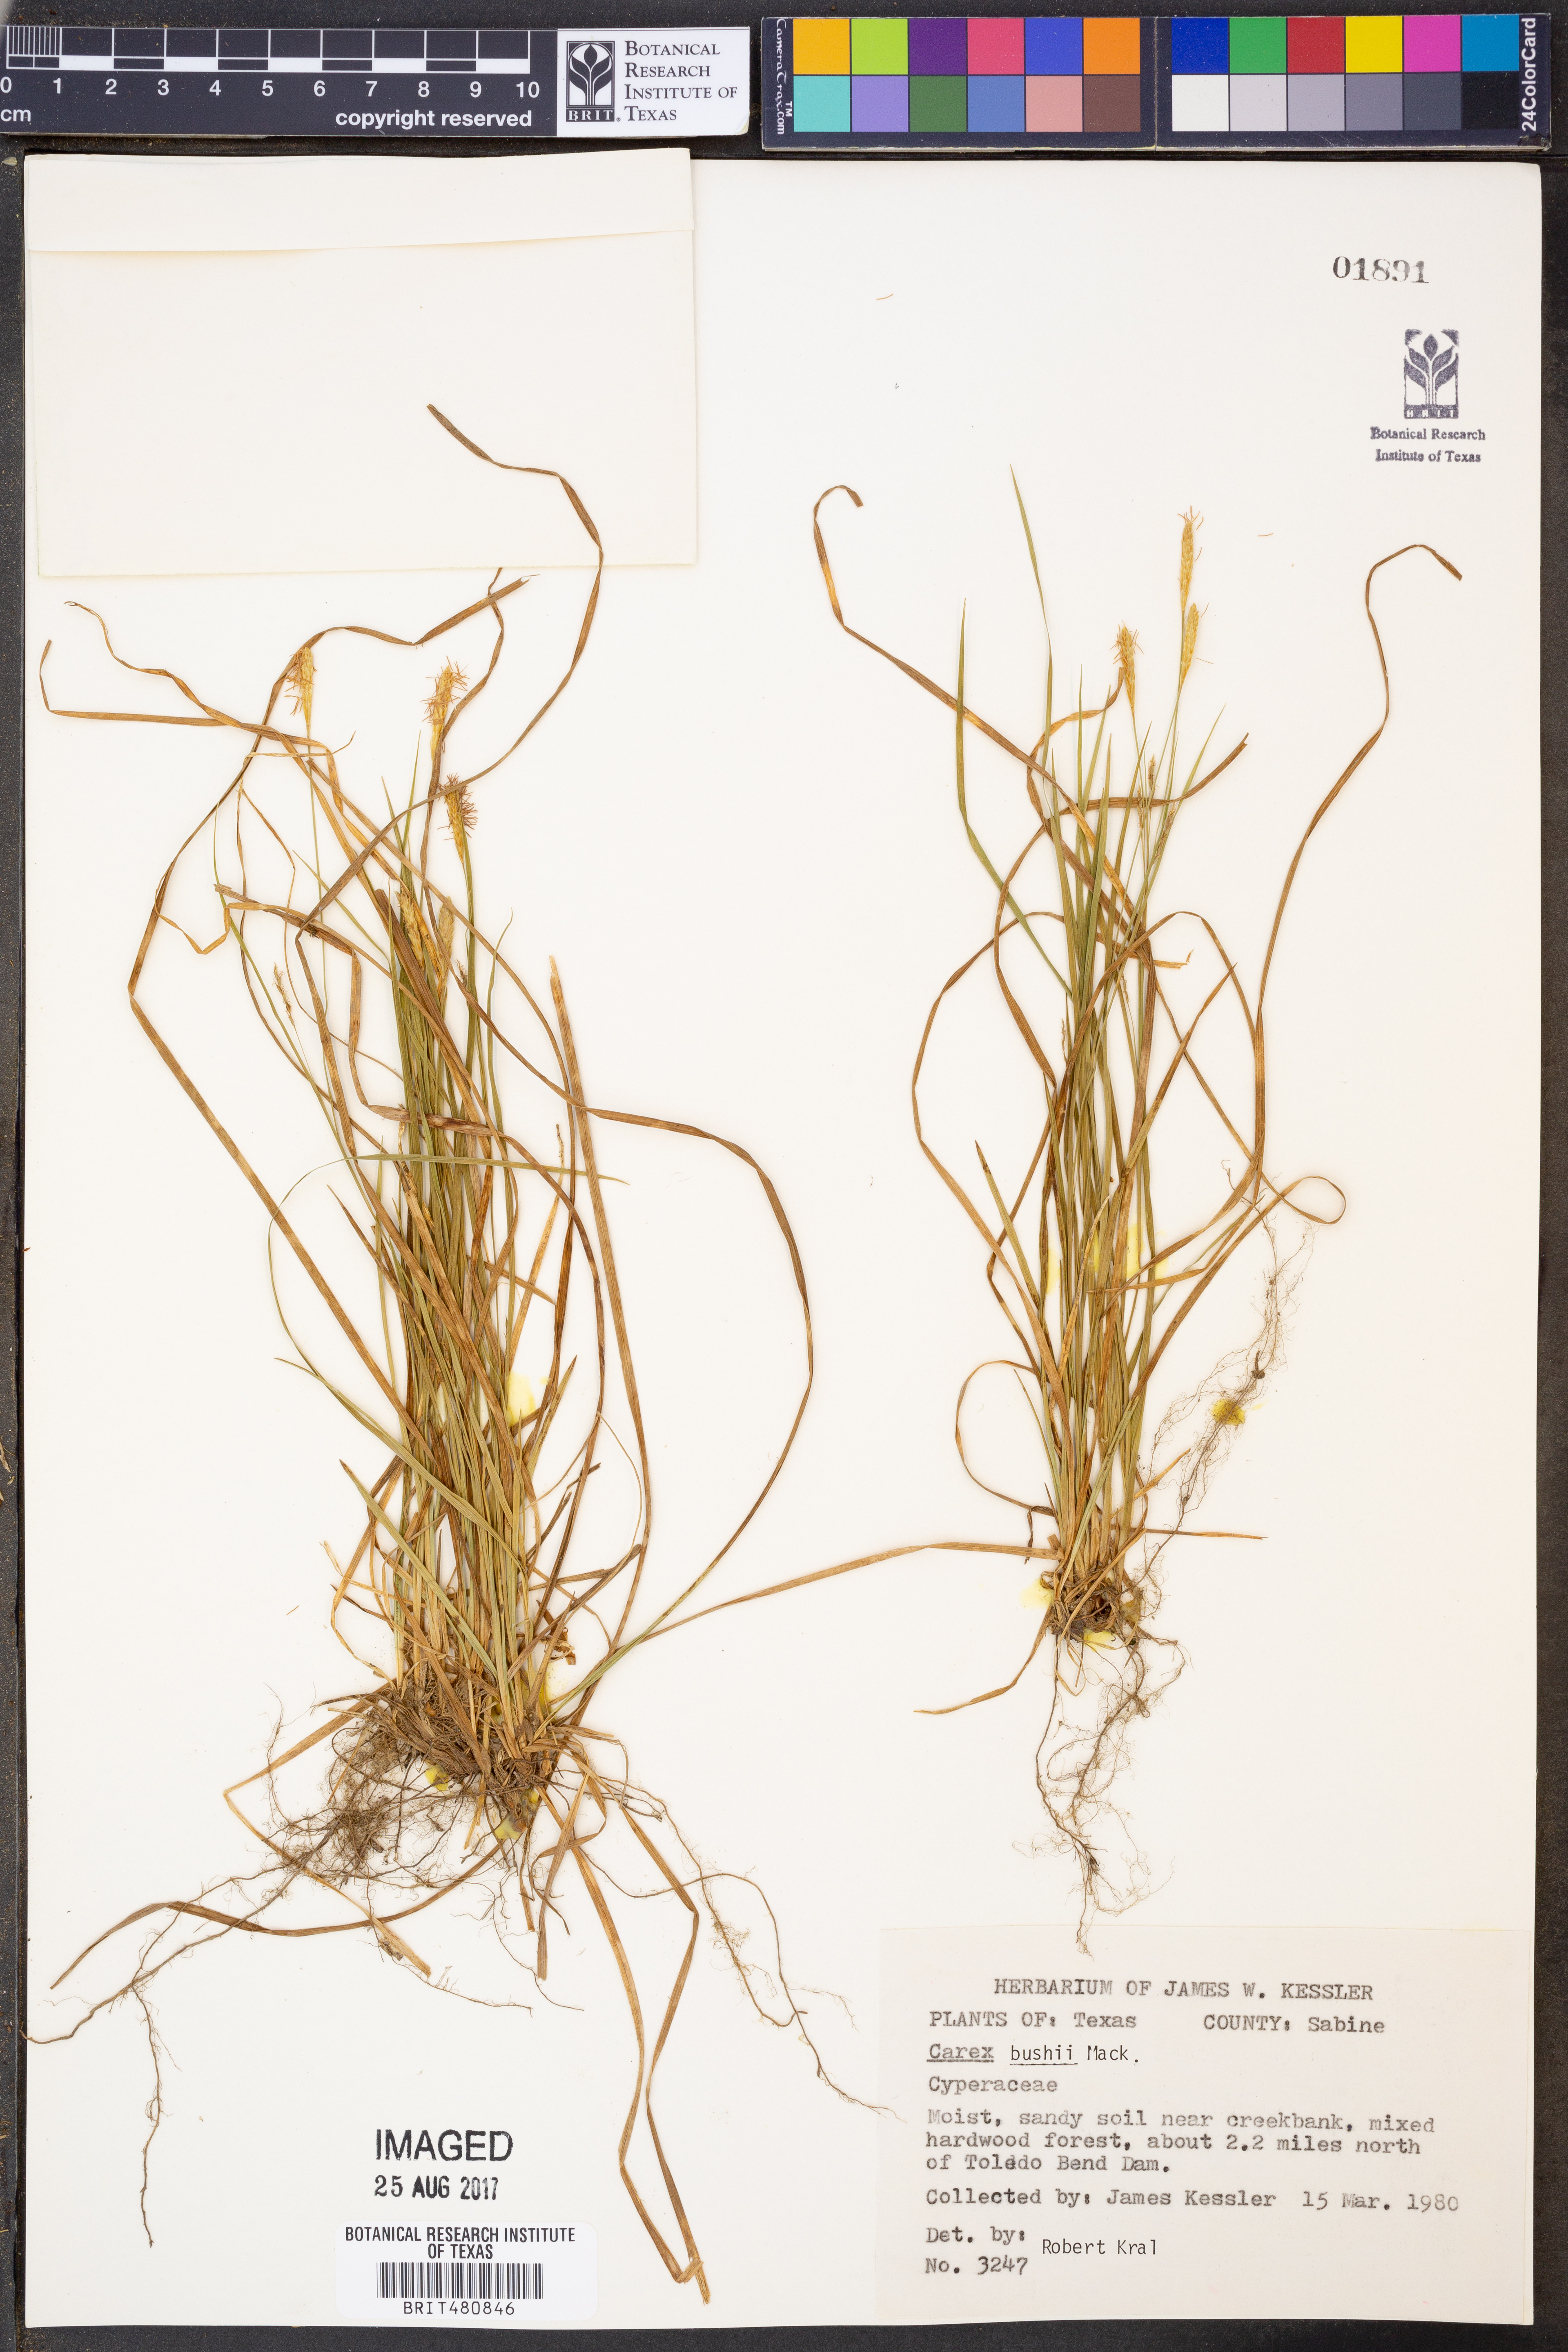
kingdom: Plantae
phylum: Tracheophyta
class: Liliopsida
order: Poales
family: Cyperaceae
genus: Carex
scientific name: Carex bushii
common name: Bush's sedge
